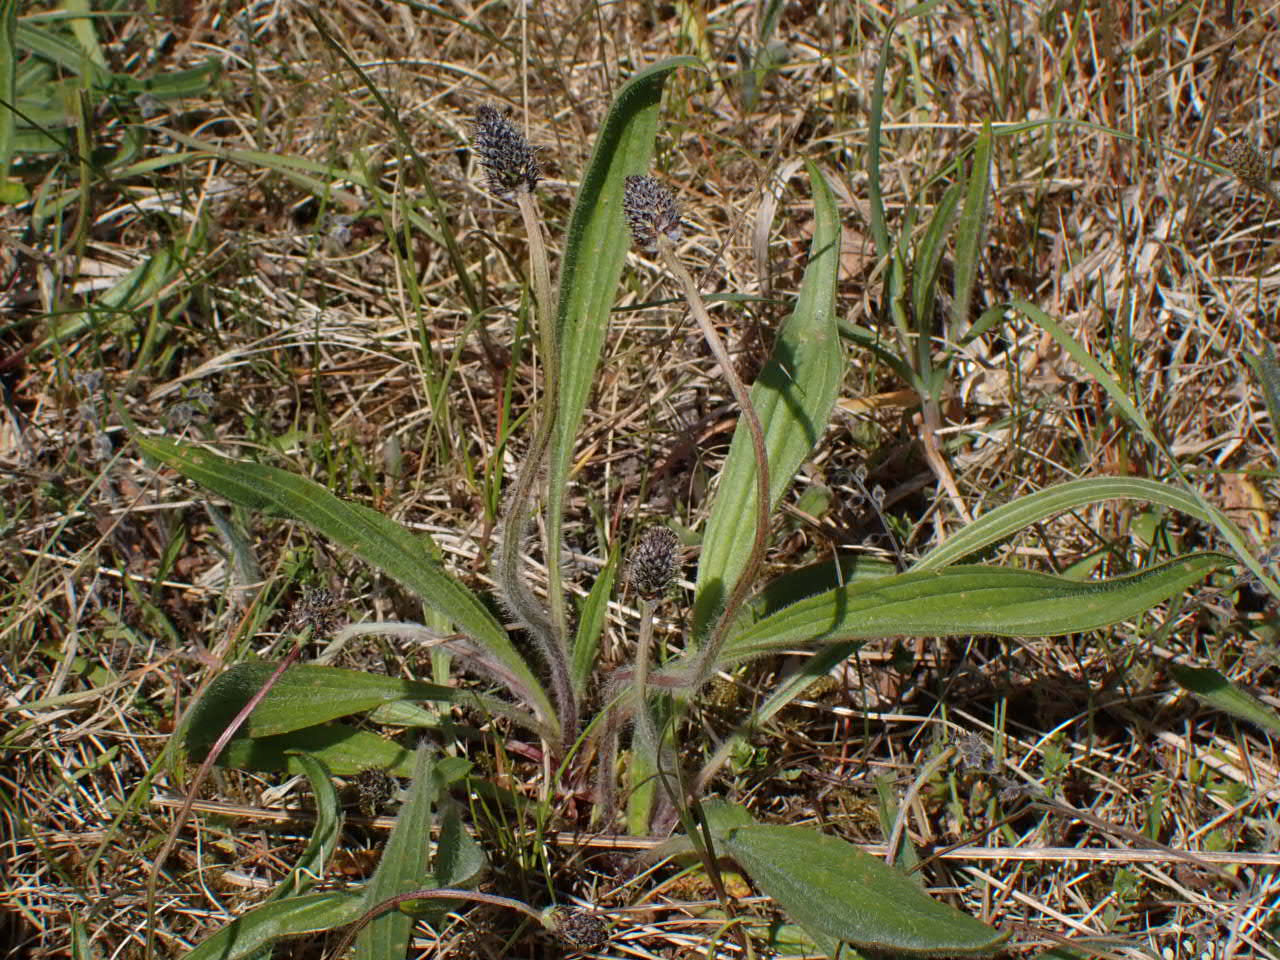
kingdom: Plantae
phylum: Tracheophyta
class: Magnoliopsida
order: Lamiales
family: Plantaginaceae
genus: Plantago
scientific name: Plantago lanceolata
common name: Lancet-vejbred
